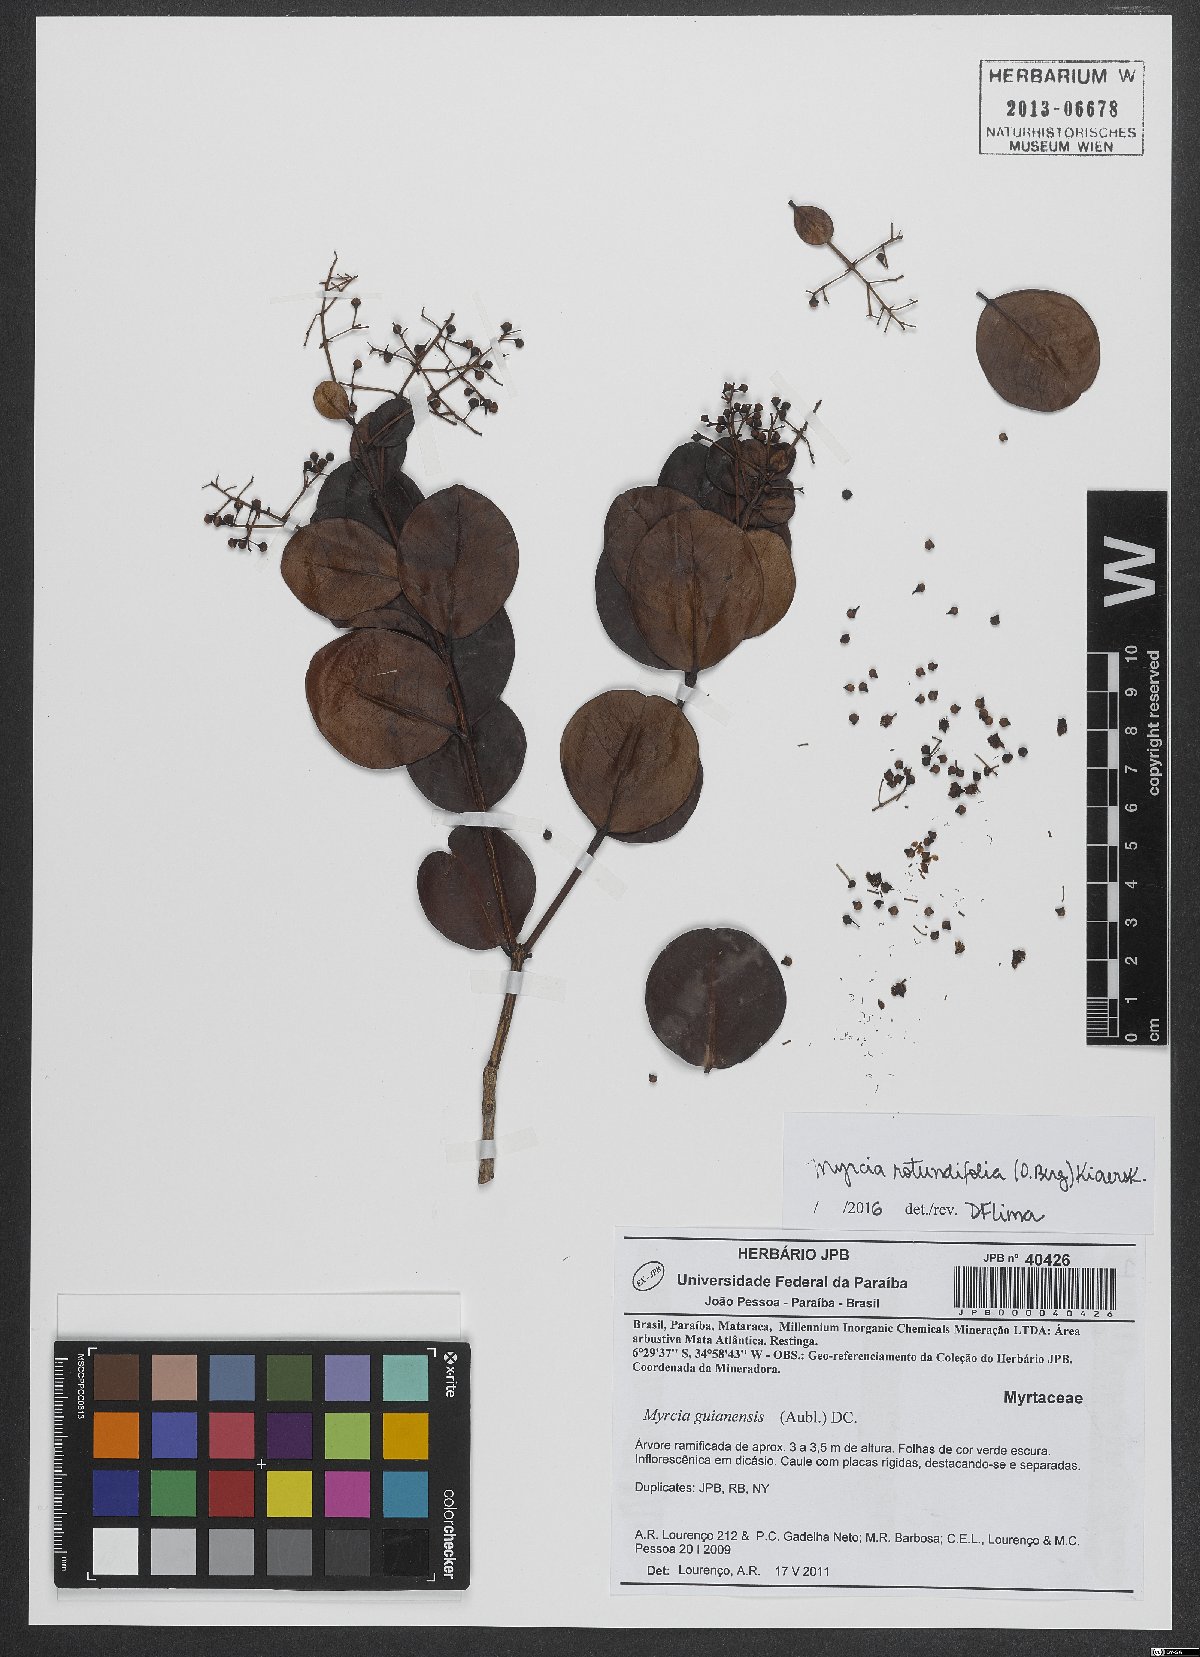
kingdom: Plantae
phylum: Tracheophyta
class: Magnoliopsida
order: Myrtales
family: Myrtaceae
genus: Myrcia
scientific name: Myrcia rotundifolia
